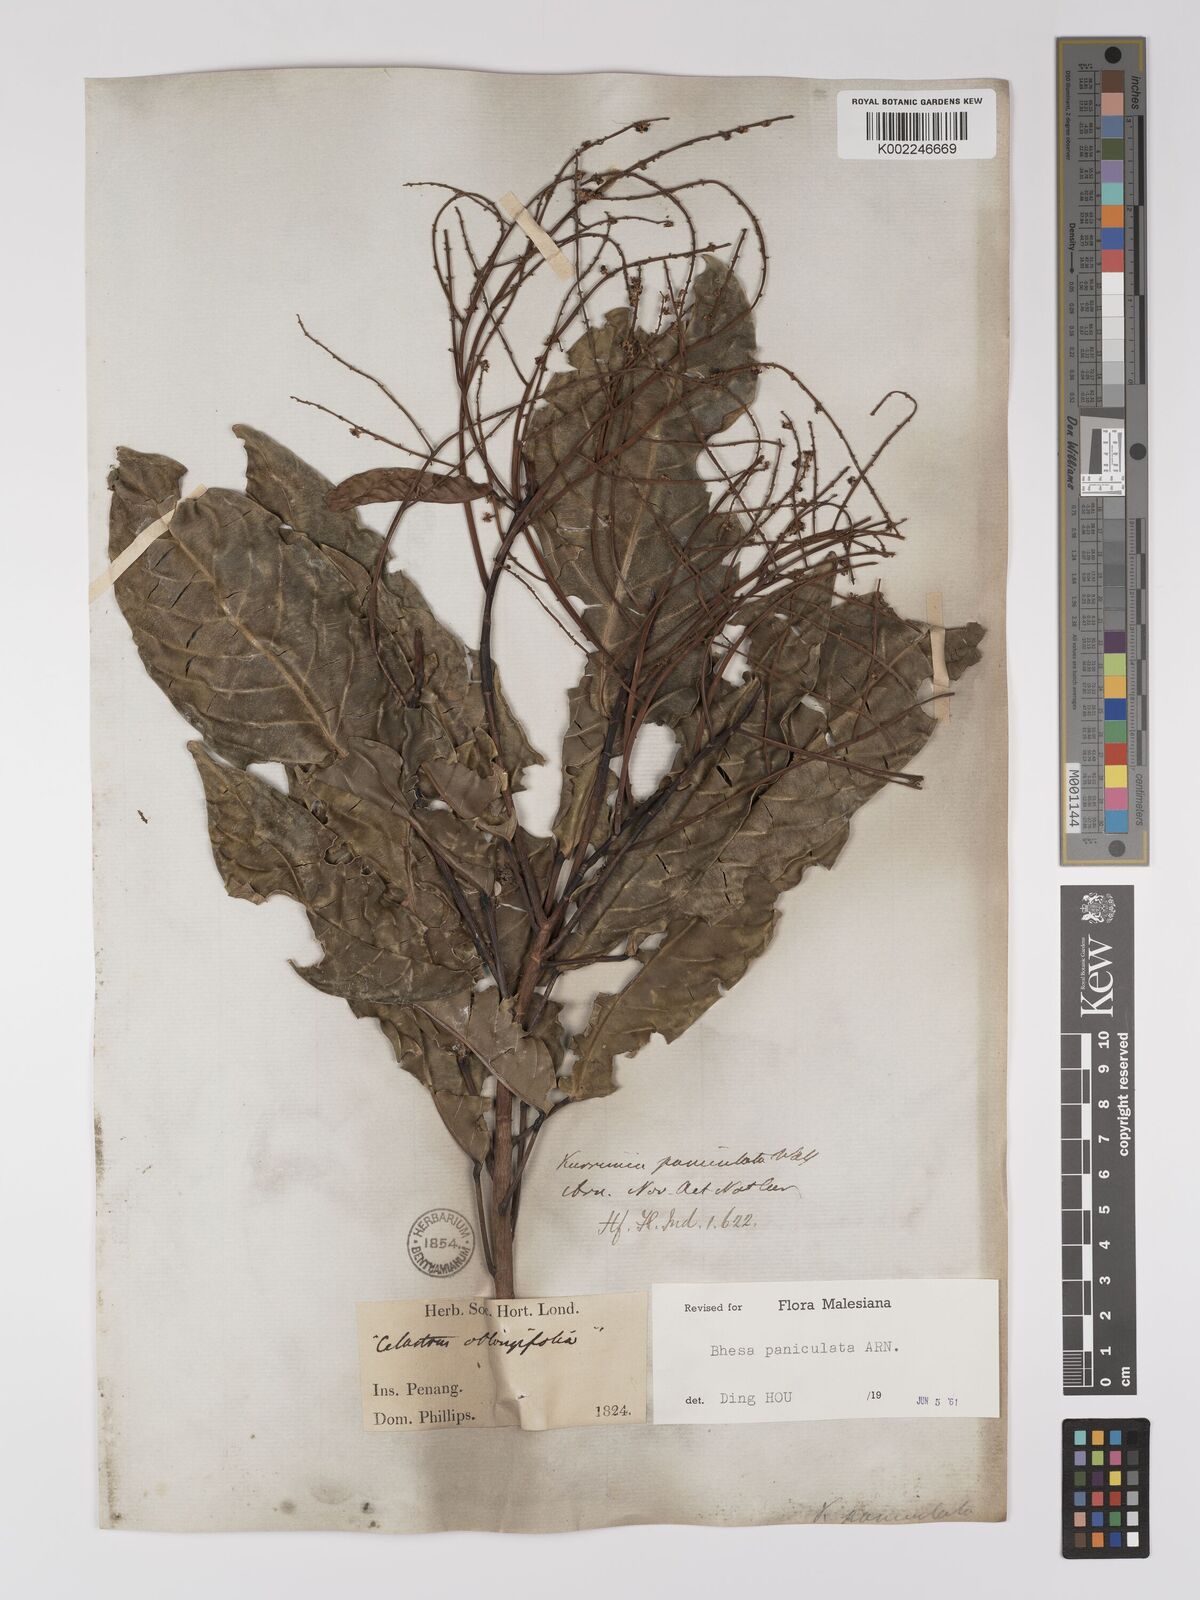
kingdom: Plantae
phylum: Tracheophyta
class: Magnoliopsida
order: Malpighiales
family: Centroplacaceae
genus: Bhesa
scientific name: Bhesa paniculata
